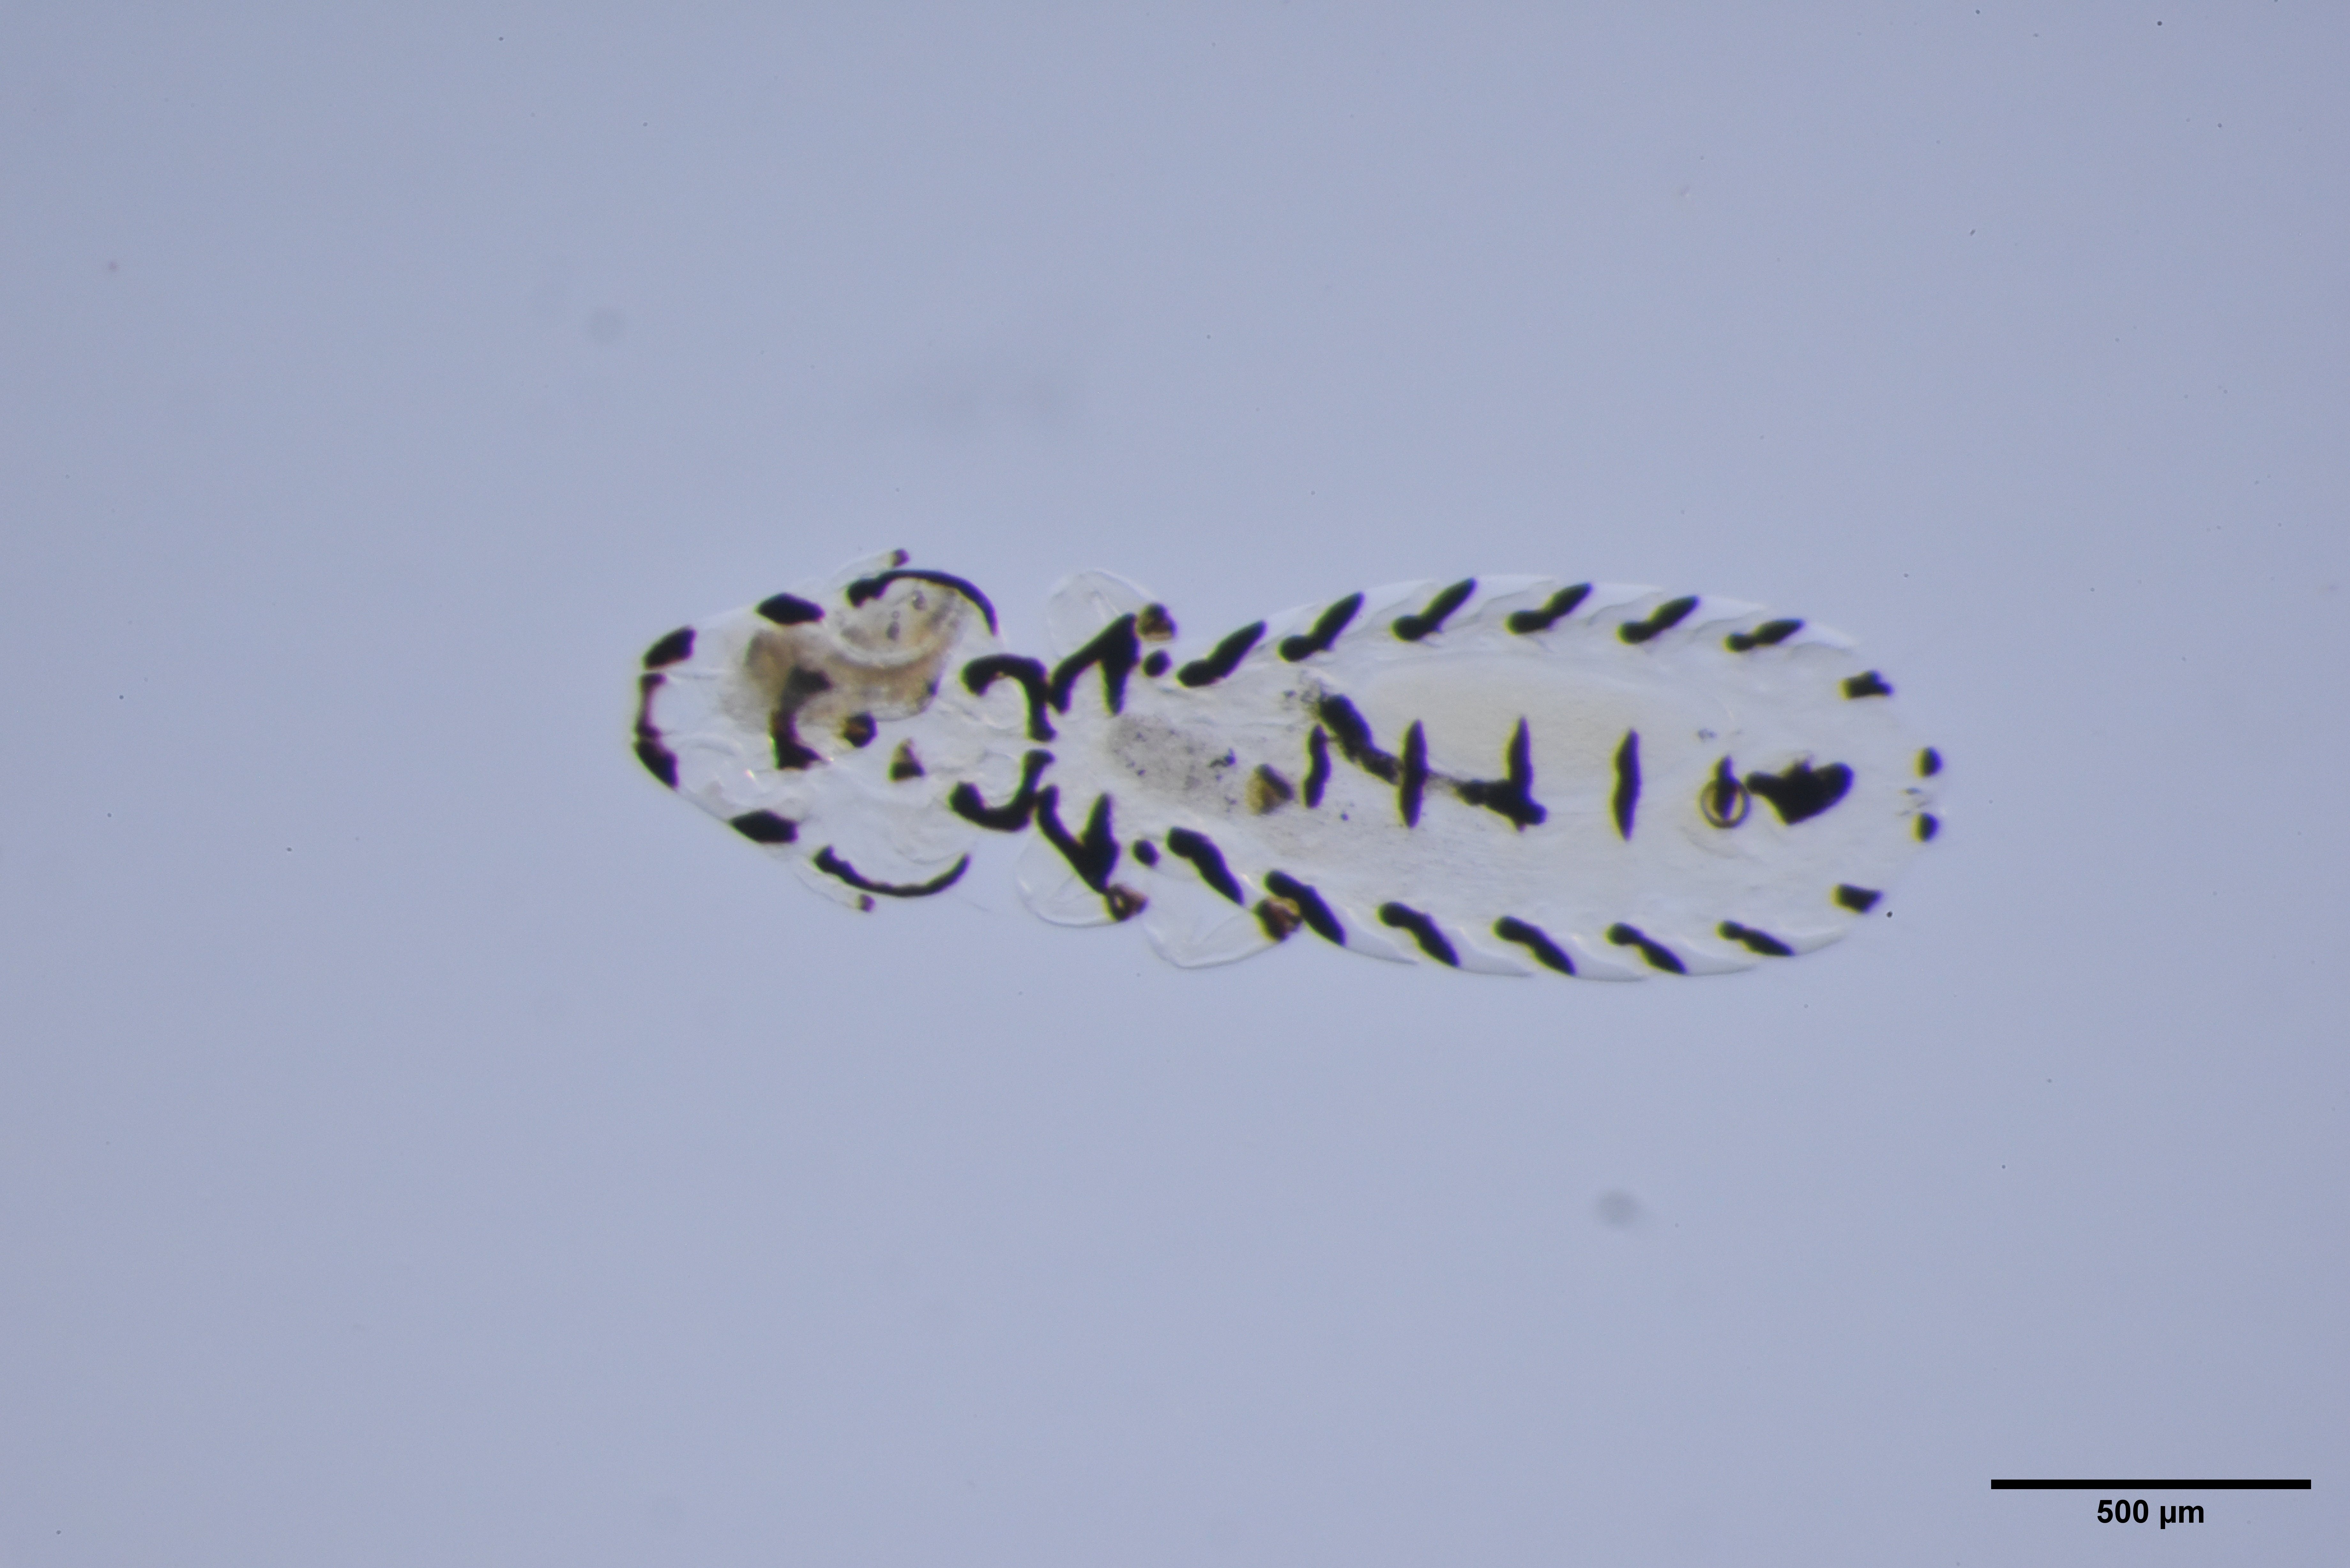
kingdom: Animalia
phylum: Arthropoda
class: Insecta
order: Psocodea
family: Philopteridae
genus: Quadraceps
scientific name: Quadraceps
